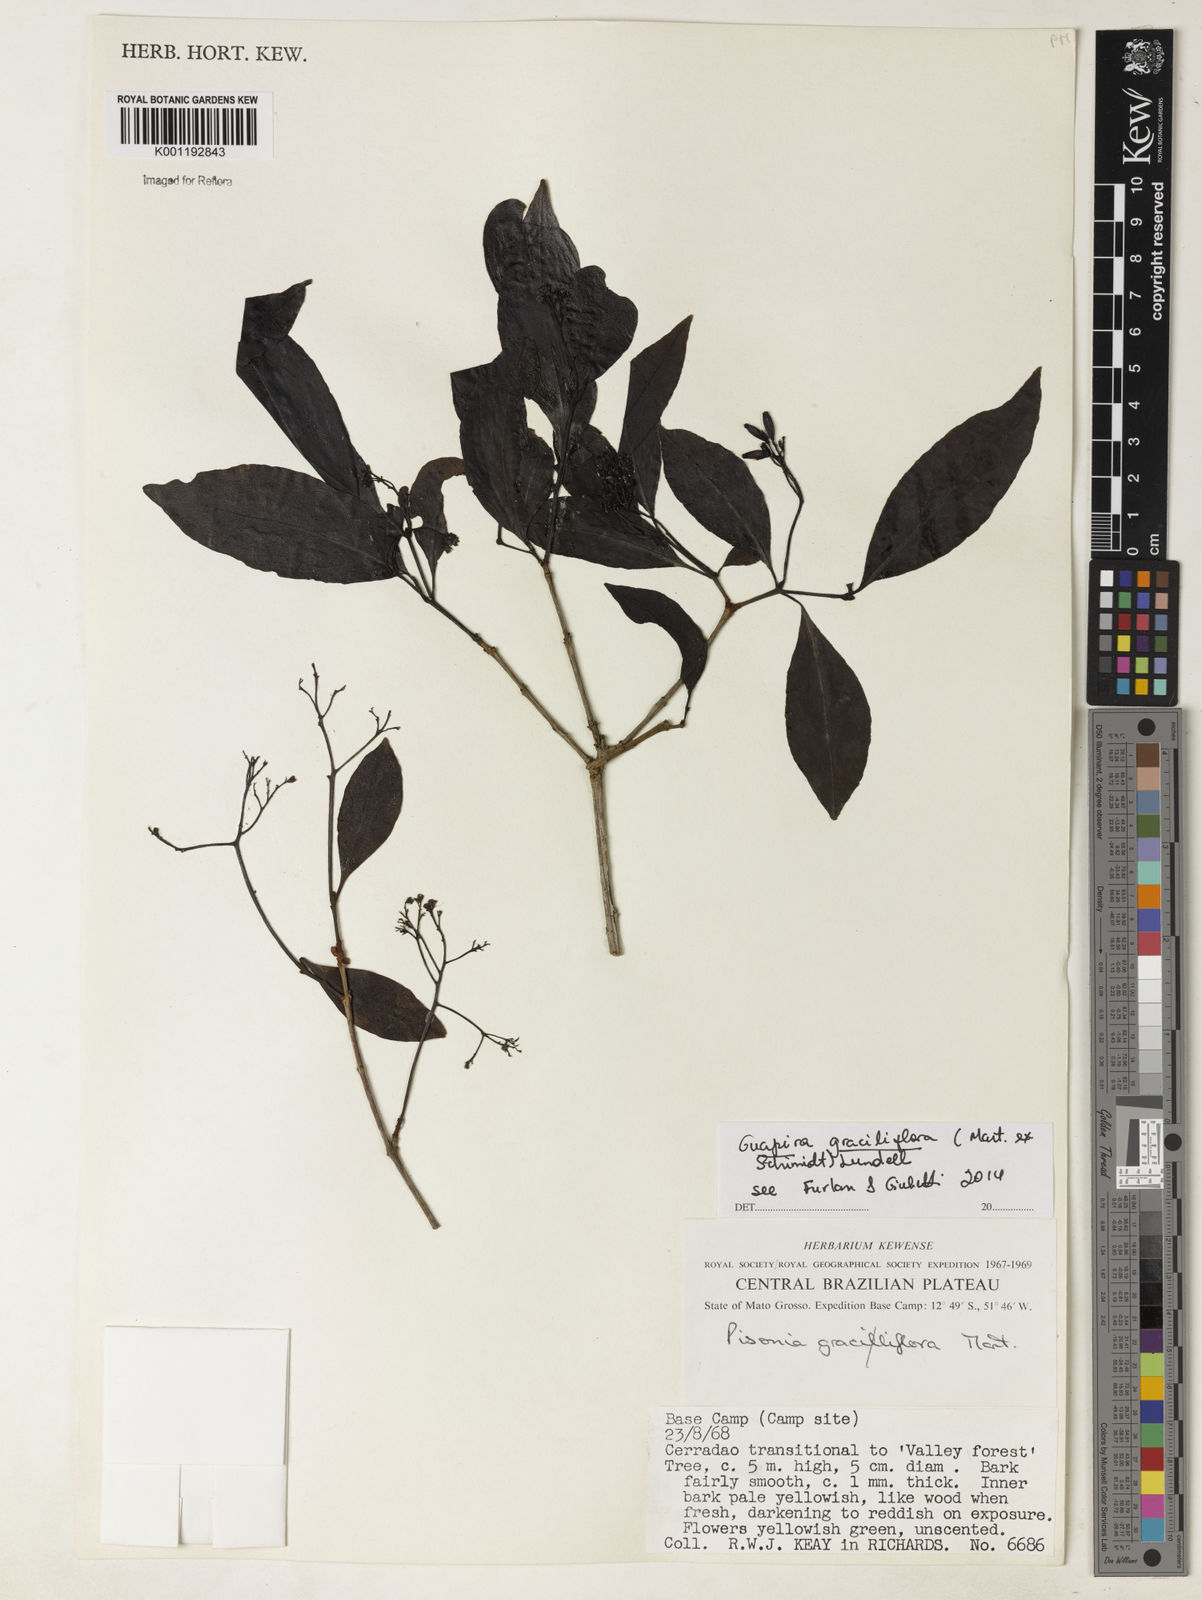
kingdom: Plantae
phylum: Tracheophyta
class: Magnoliopsida
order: Caryophyllales
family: Nyctaginaceae
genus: Guapira
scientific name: Guapira graciliflora
